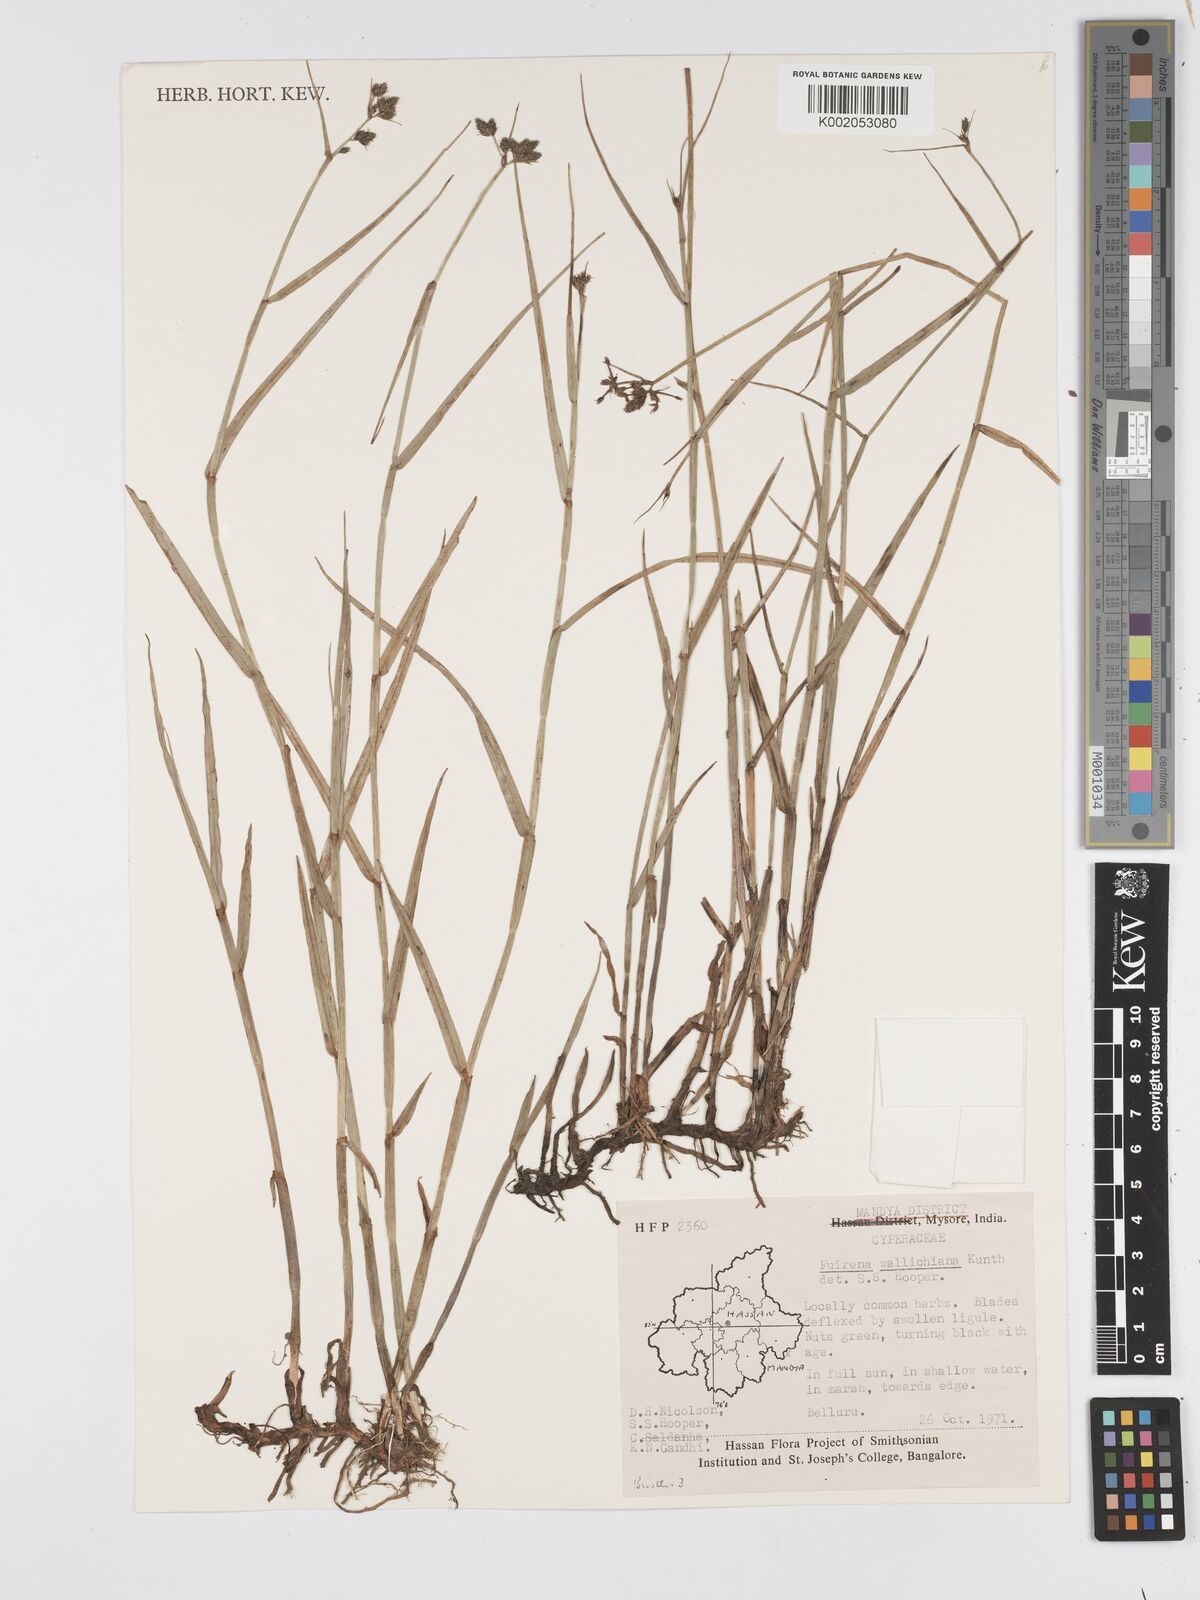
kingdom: Plantae
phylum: Tracheophyta
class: Liliopsida
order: Poales
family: Cyperaceae
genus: Fuirena
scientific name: Fuirena cuspidata
